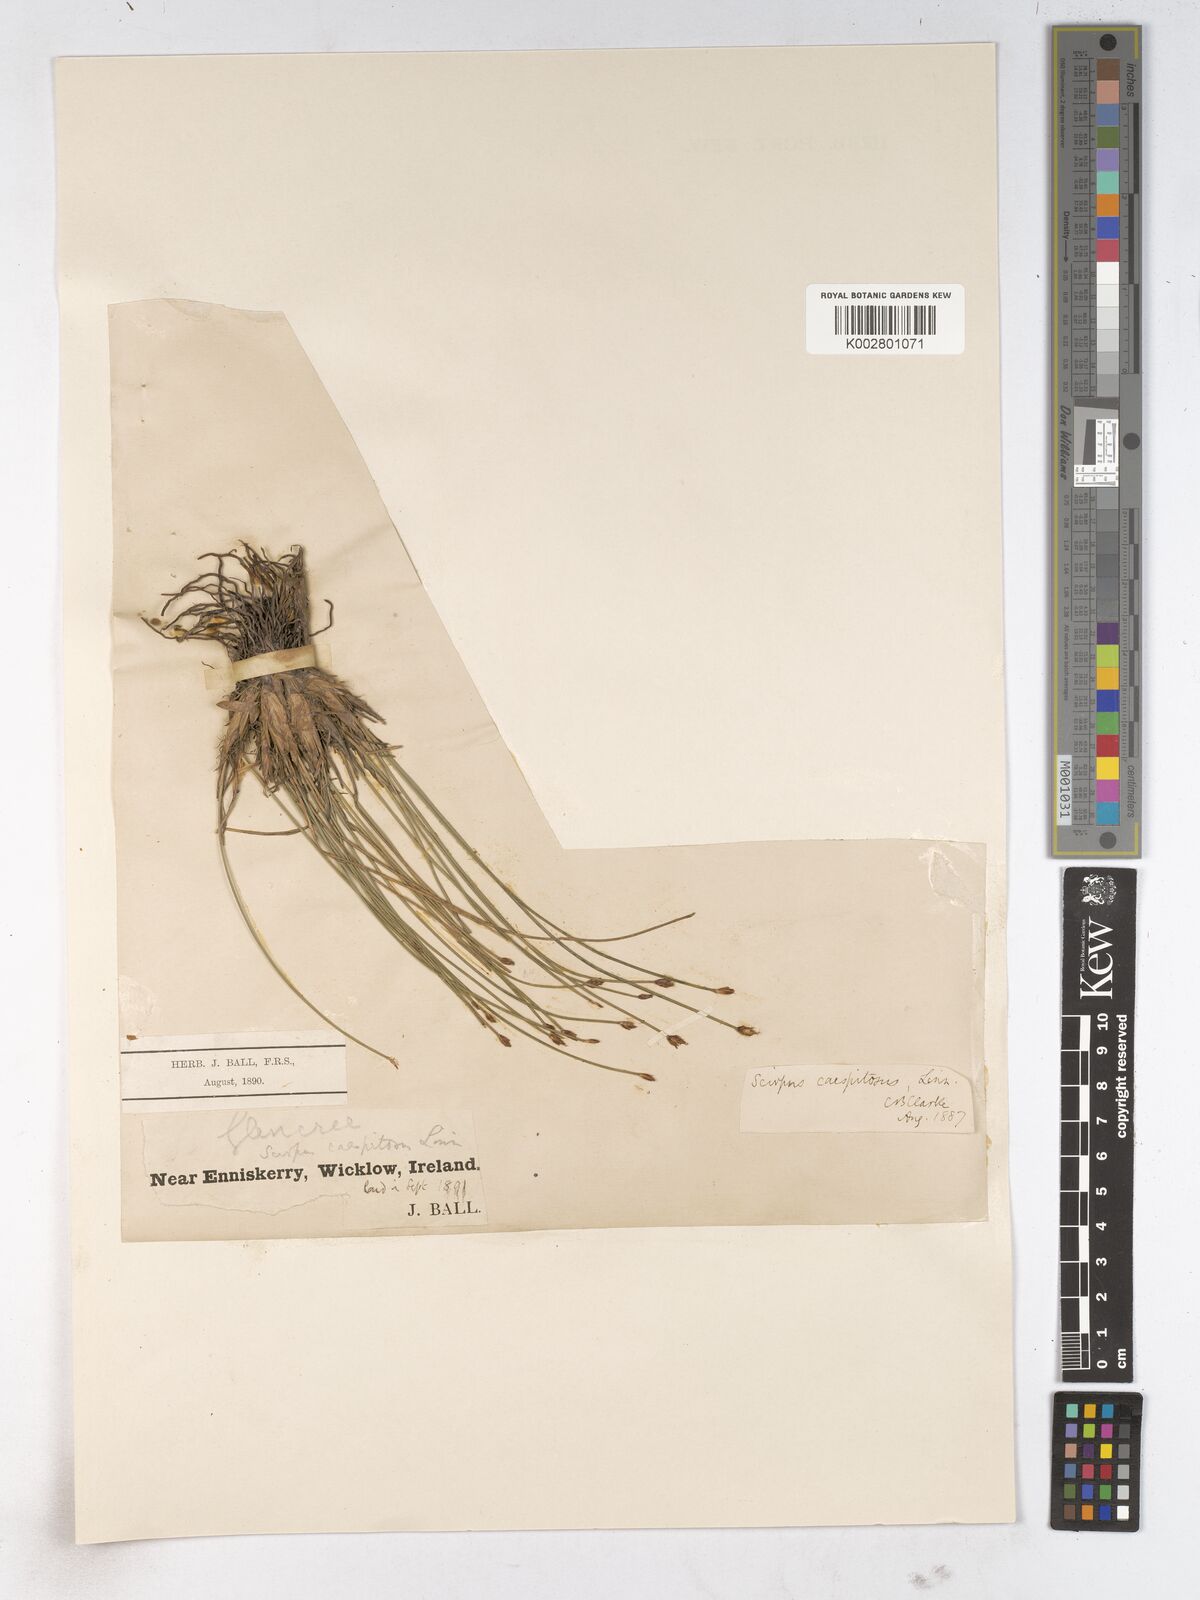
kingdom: Plantae
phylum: Tracheophyta
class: Liliopsida
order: Poales
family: Cyperaceae
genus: Trichophorum
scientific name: Trichophorum cespitosum
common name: Cespitose bulrush
